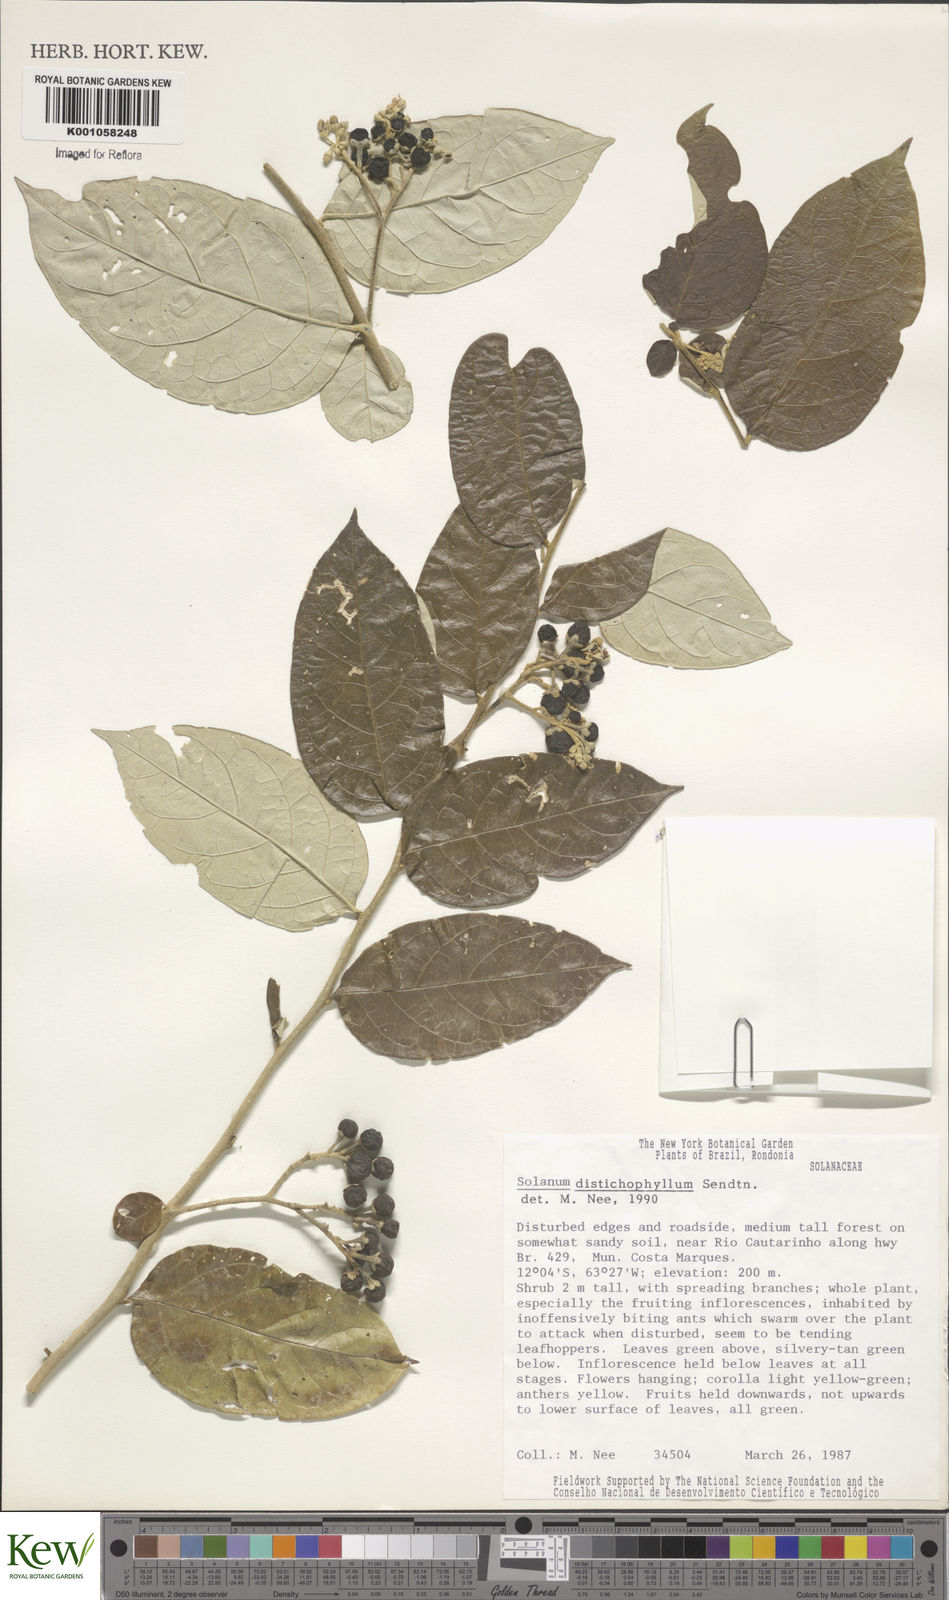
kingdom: Plantae
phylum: Tracheophyta
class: Magnoliopsida
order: Solanales
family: Solanaceae
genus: Solanum
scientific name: Solanum distichophyllum
